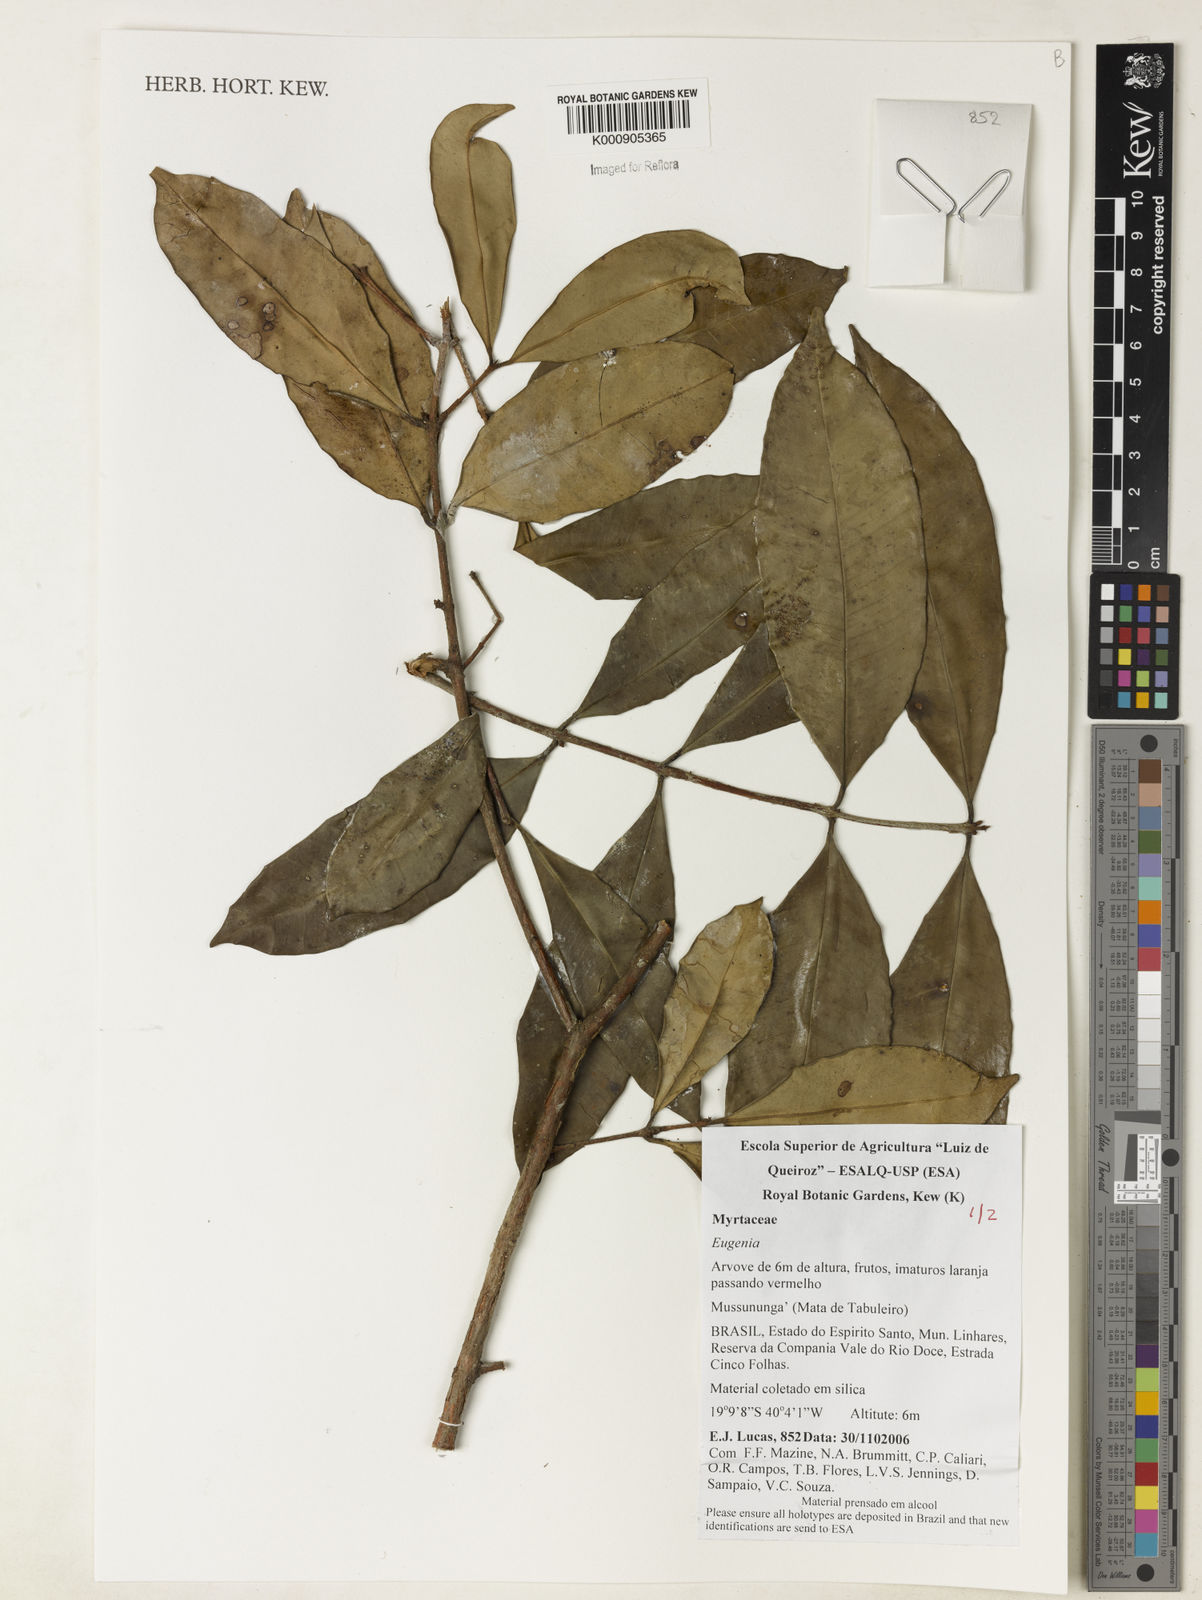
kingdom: Plantae
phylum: Tracheophyta
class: Magnoliopsida
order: Myrtales
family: Myrtaceae
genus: Eugenia
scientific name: Eugenia pisiformis
